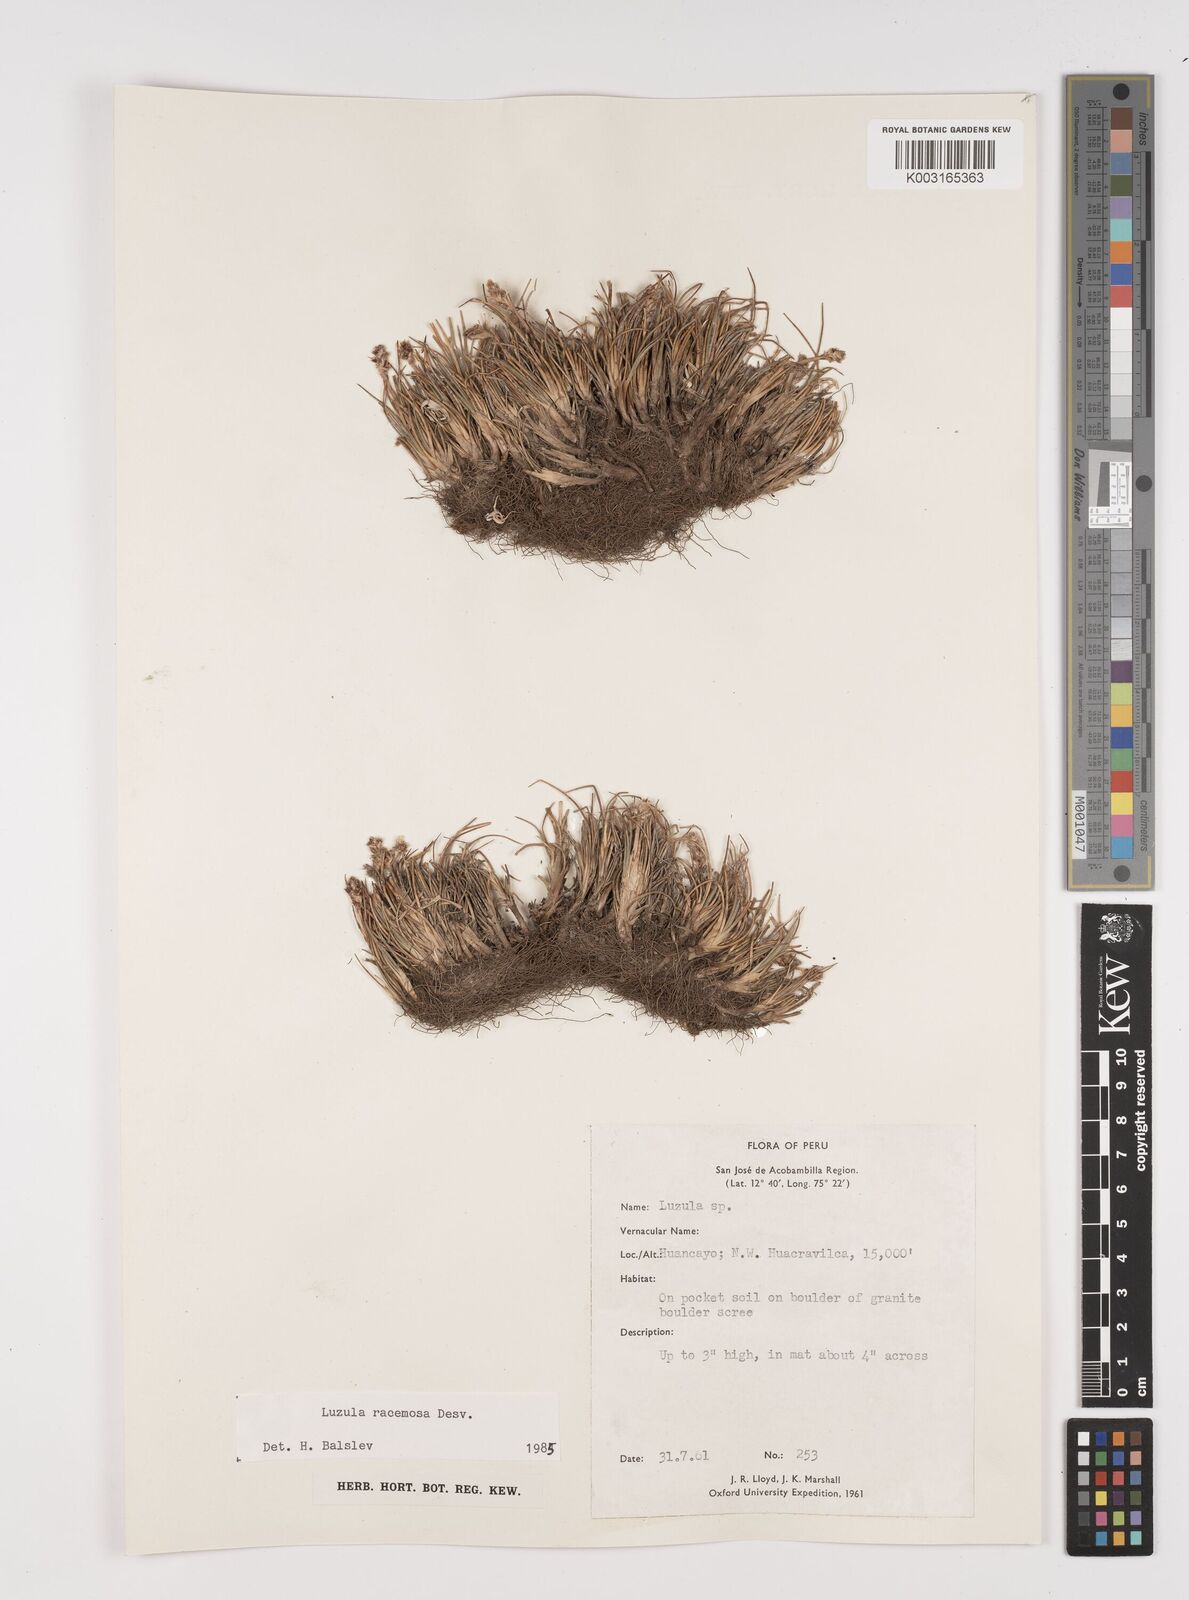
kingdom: Plantae
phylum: Tracheophyta
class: Liliopsida
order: Poales
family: Juncaceae
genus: Luzula
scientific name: Luzula racemosa
